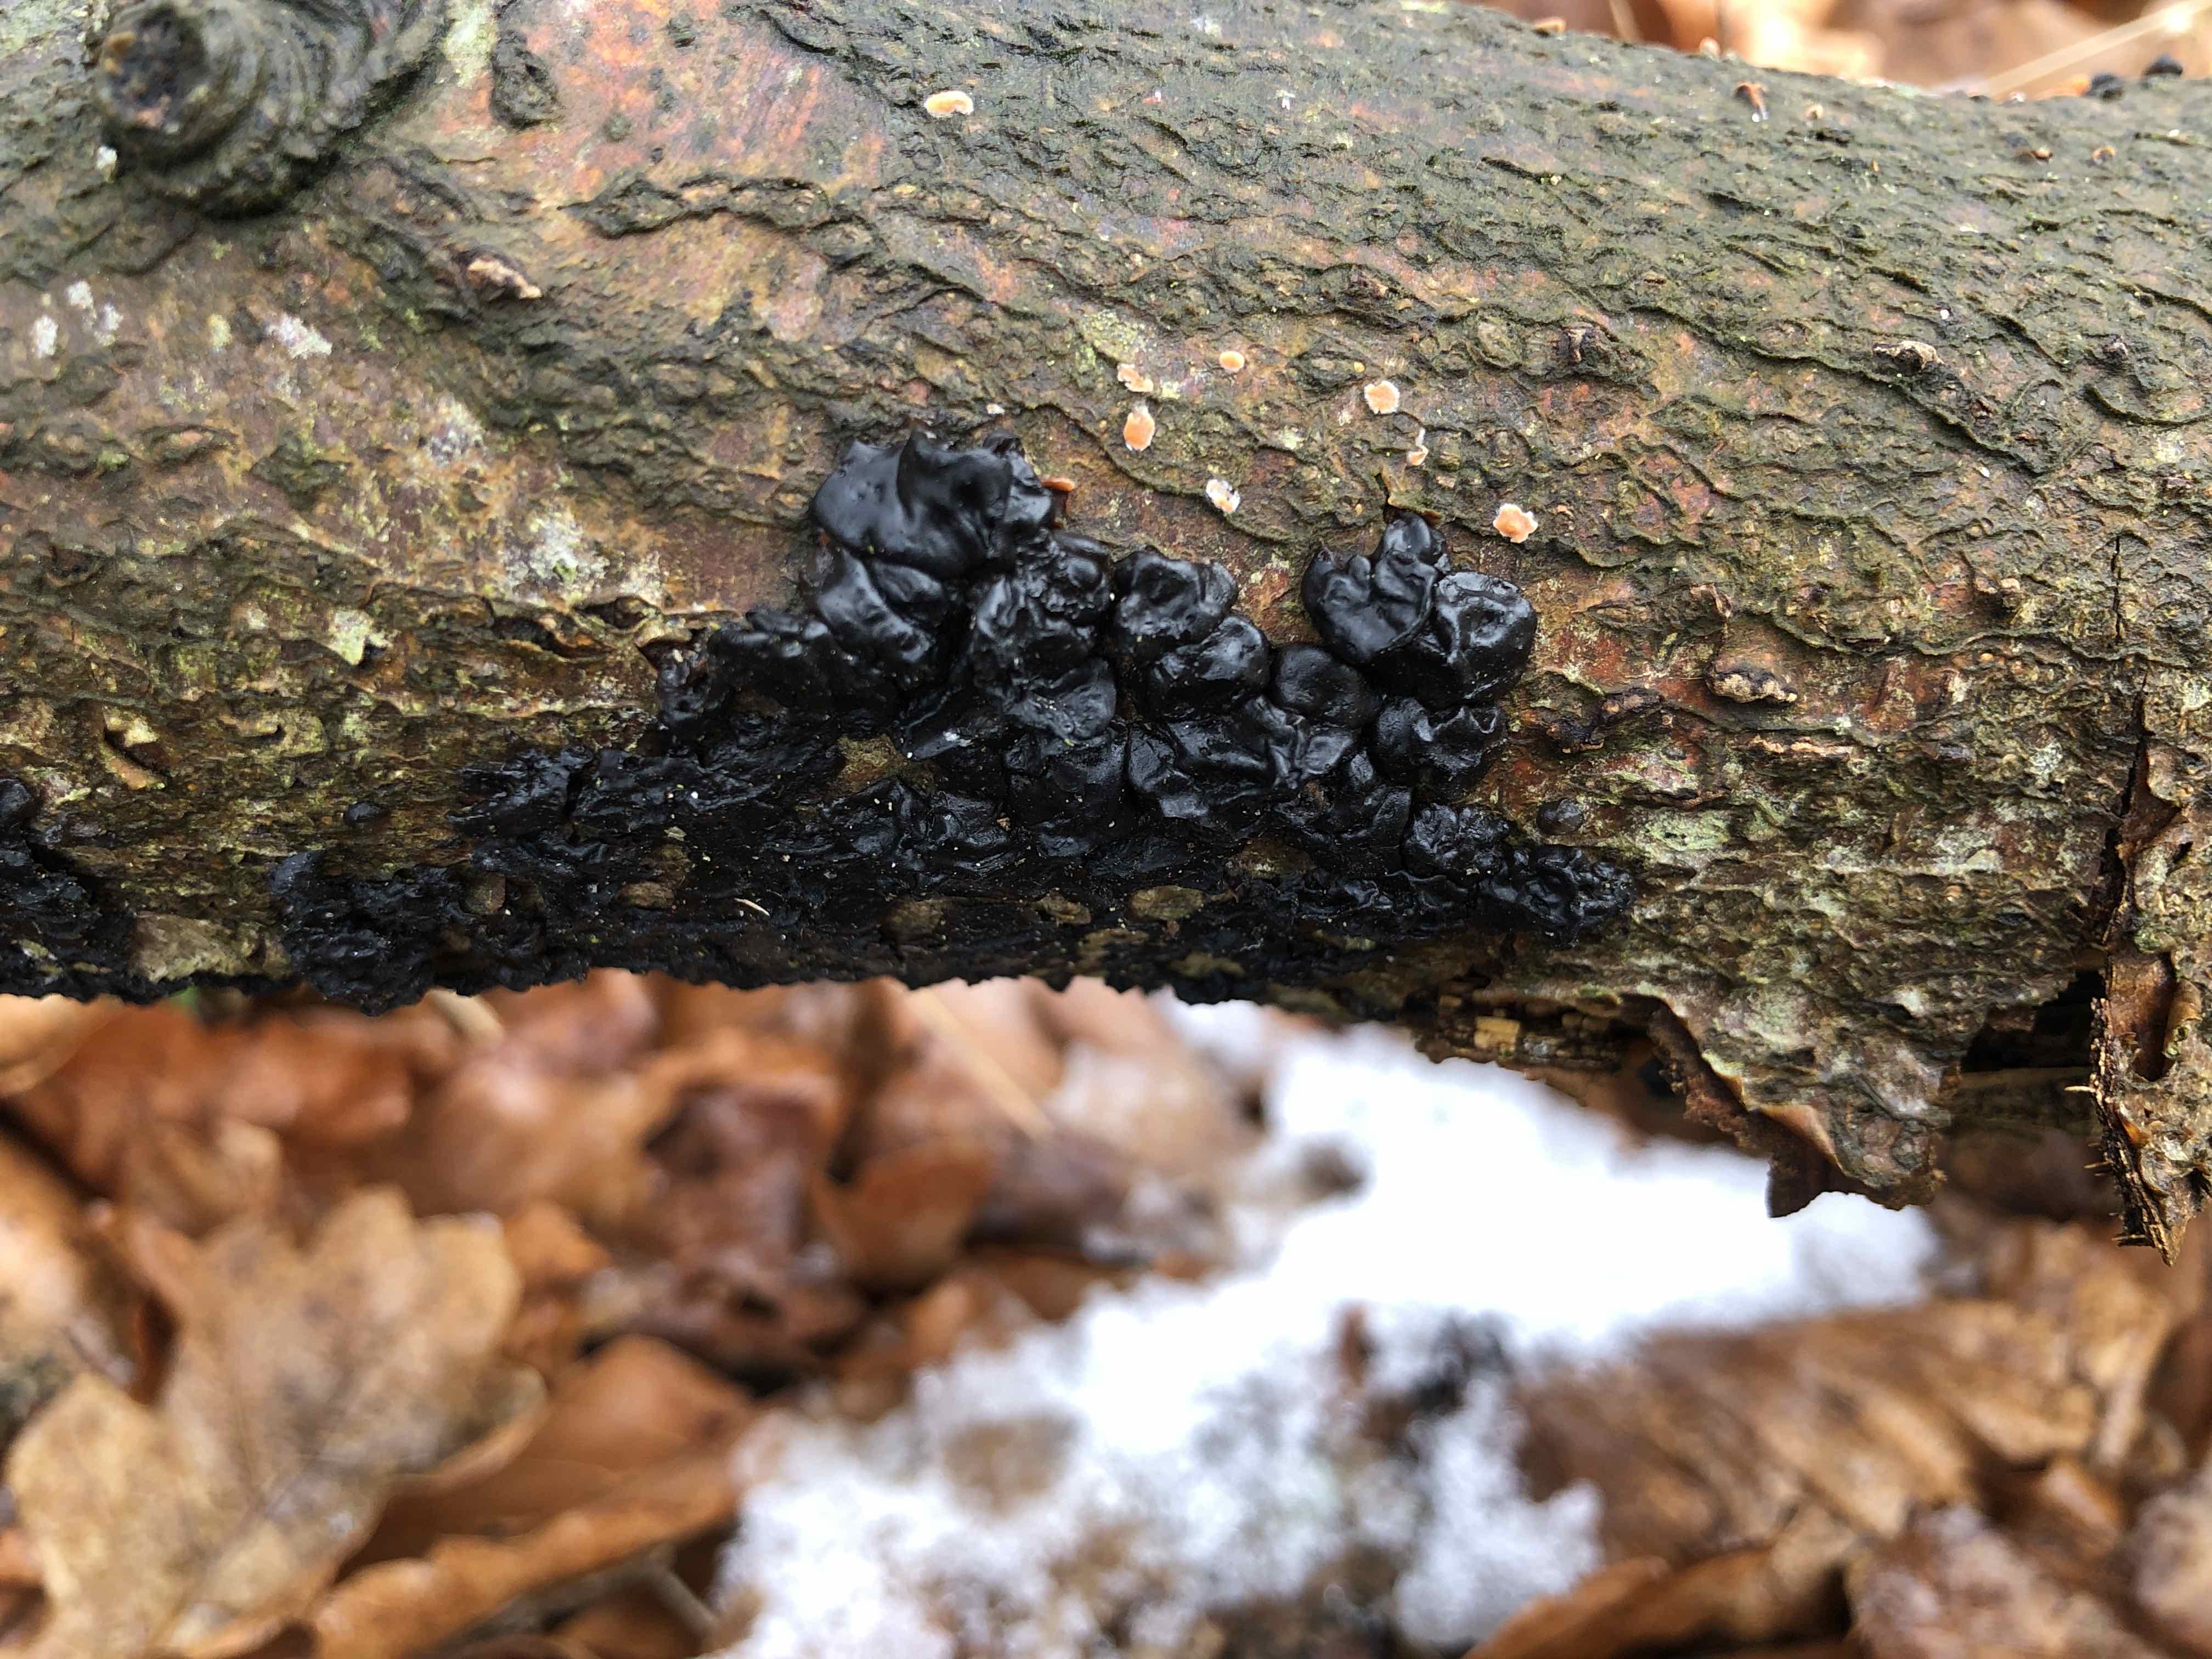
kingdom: Fungi
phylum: Basidiomycota
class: Agaricomycetes
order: Auriculariales
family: Auriculariaceae
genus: Exidia
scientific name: Exidia nigricans
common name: almindelig bævretop
